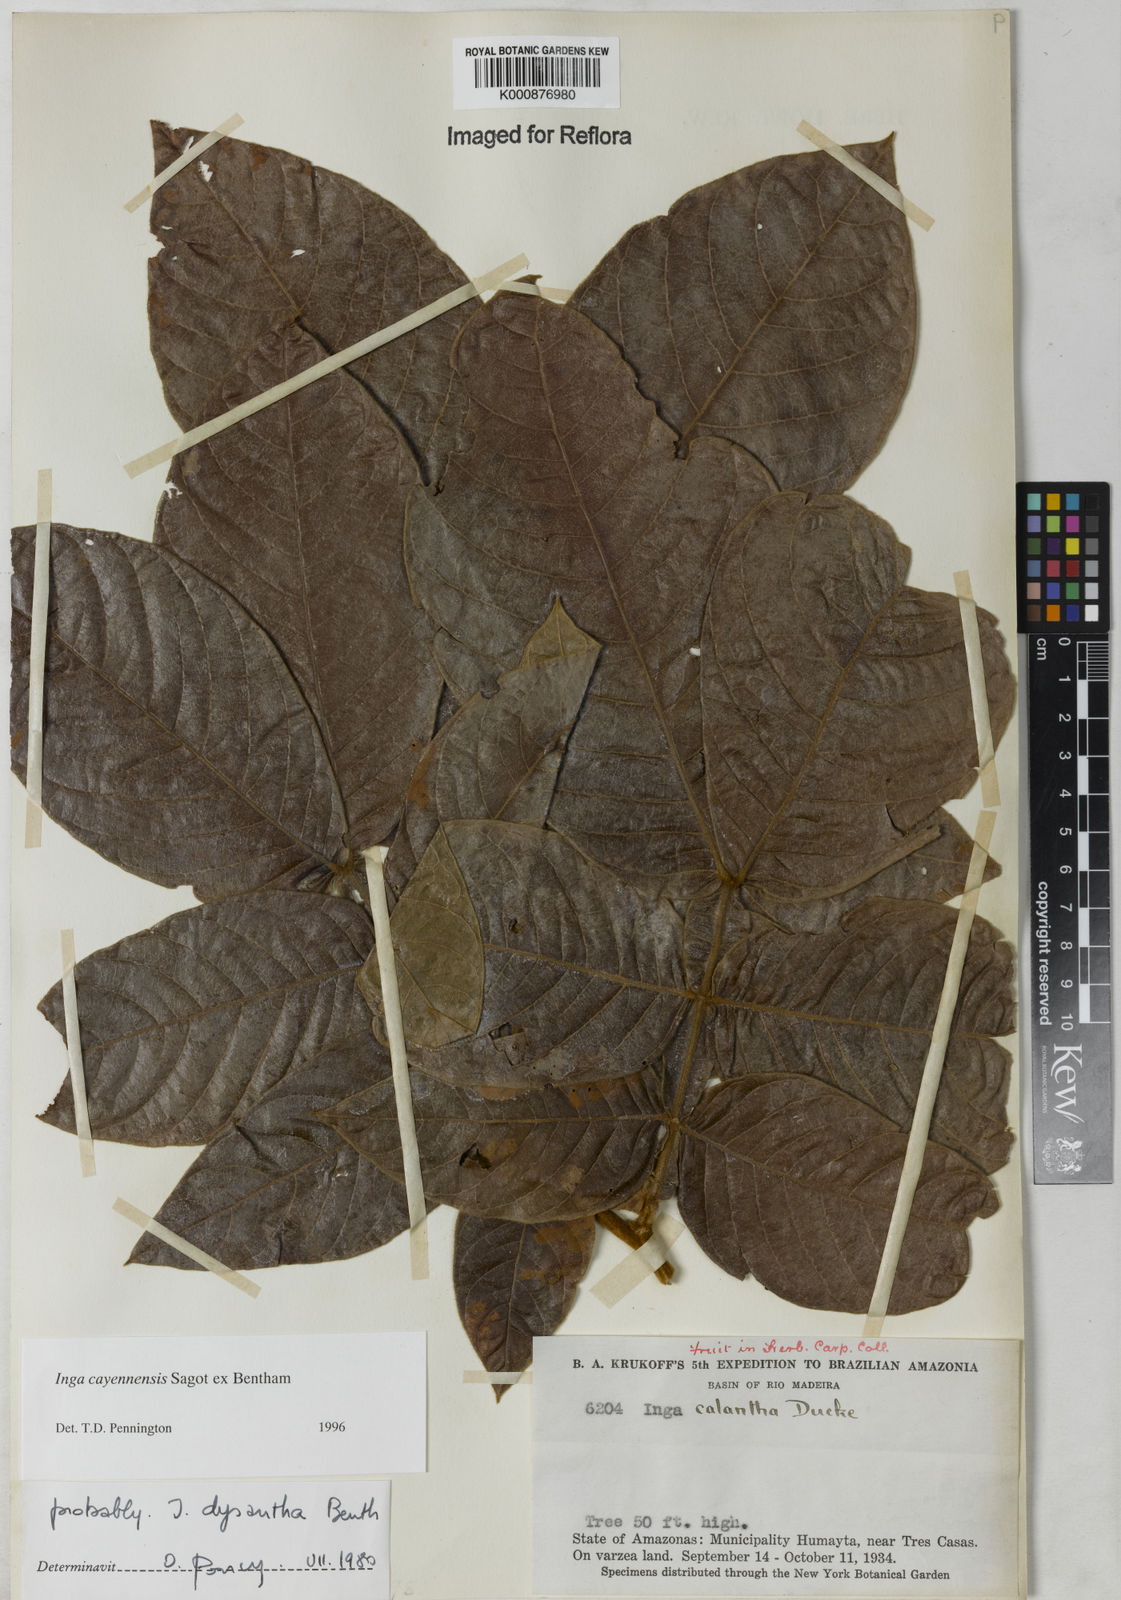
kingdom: Plantae
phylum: Tracheophyta
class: Magnoliopsida
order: Fabales
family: Fabaceae
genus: Inga
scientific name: Inga cayennensis
